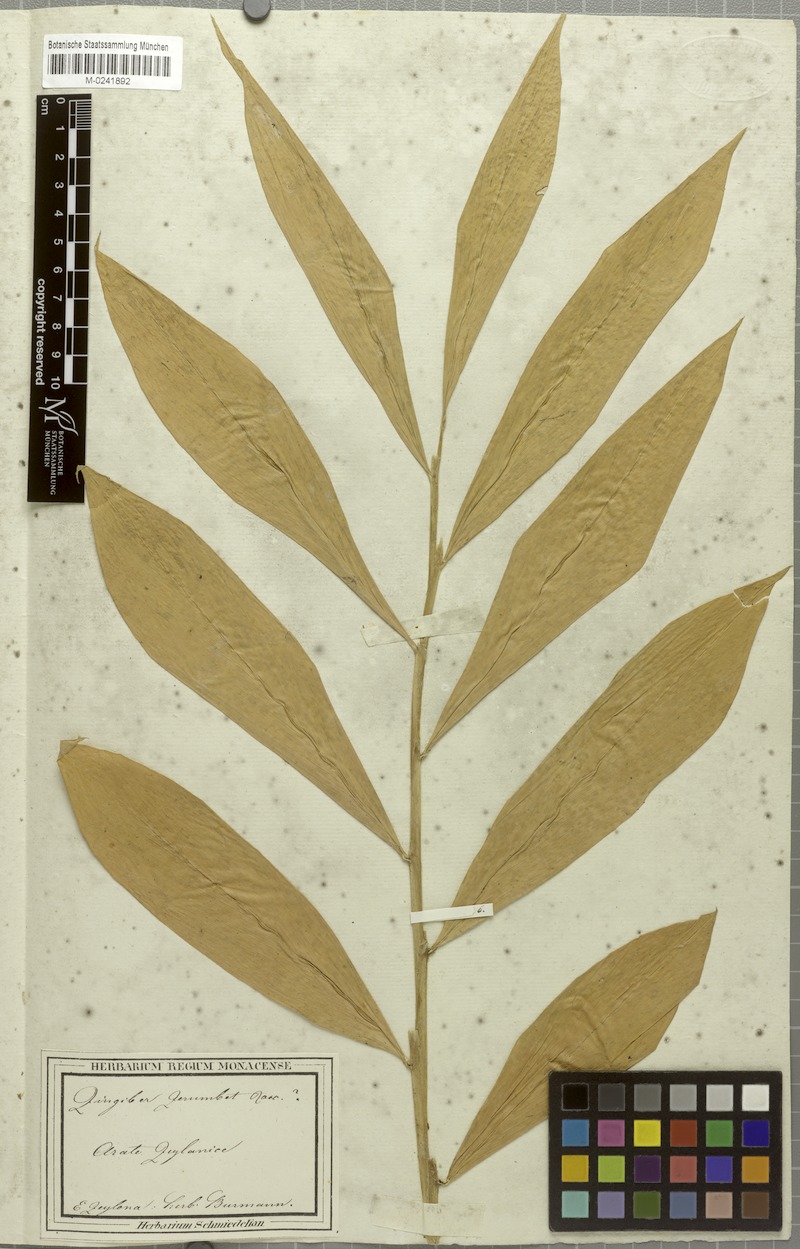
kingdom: Plantae
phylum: Tracheophyta
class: Liliopsida
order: Zingiberales
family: Zingiberaceae
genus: Zingiber
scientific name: Zingiber zerumbet
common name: Bitter ginger
